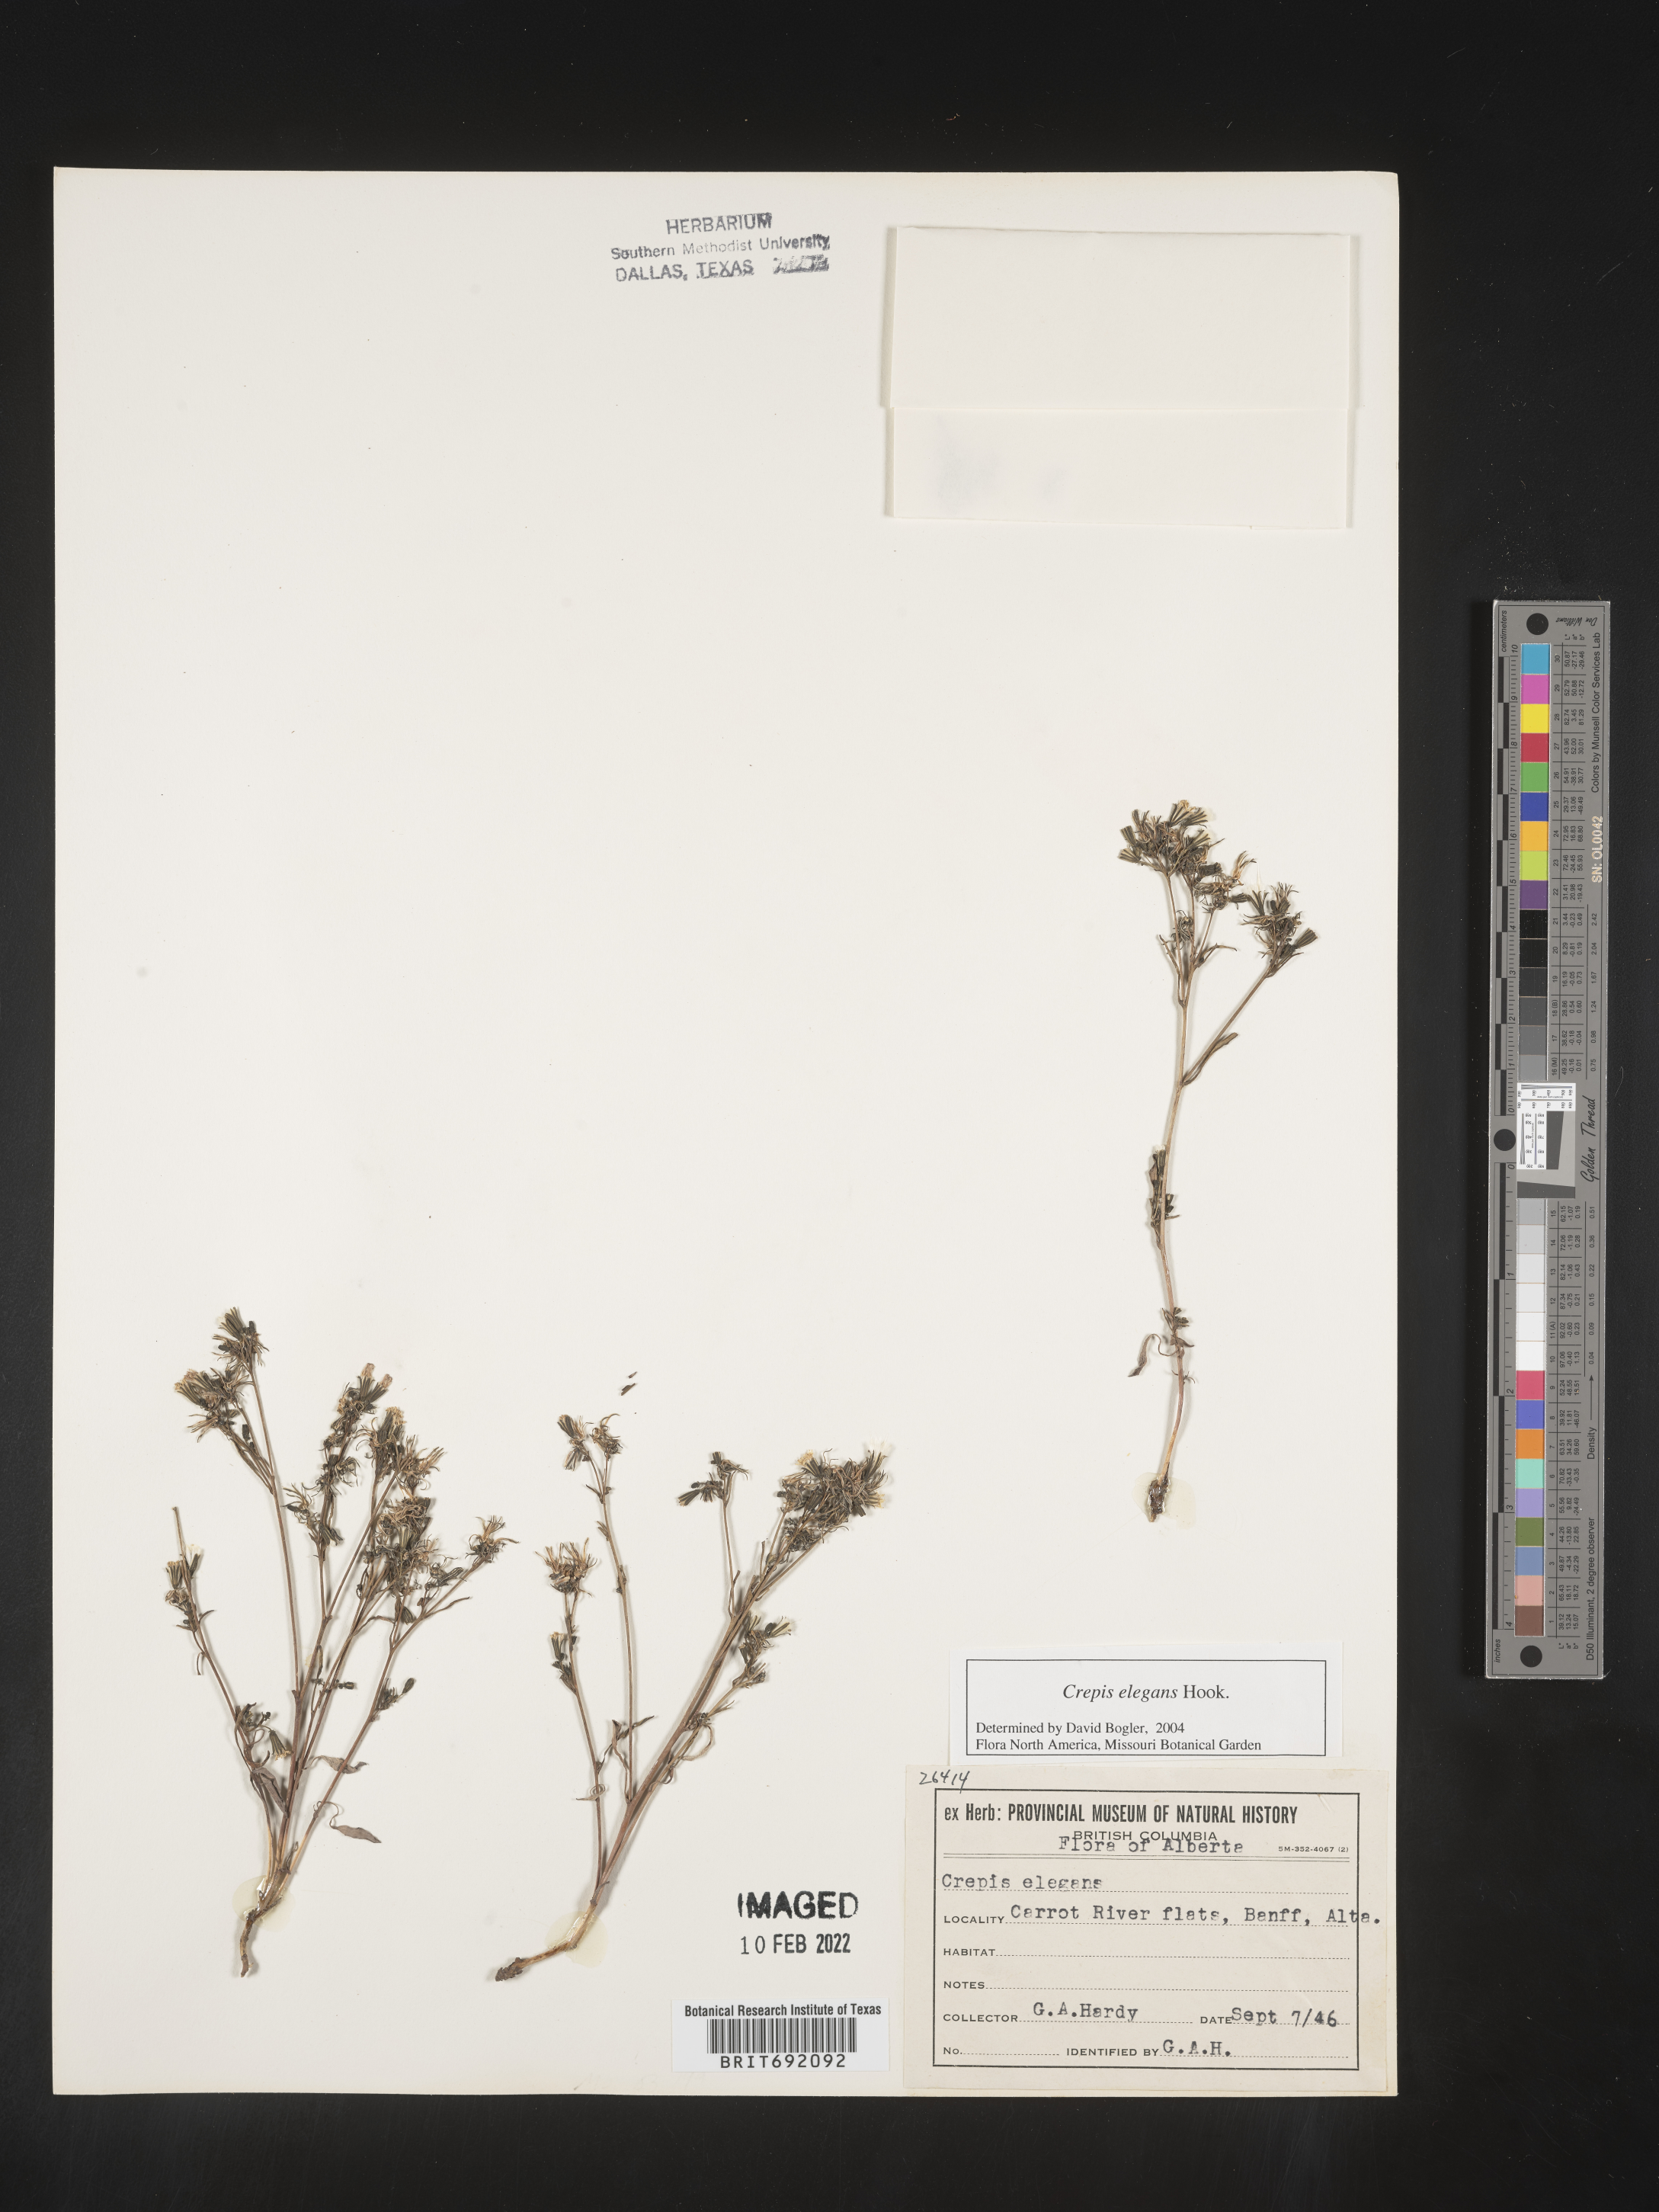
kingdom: Plantae
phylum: Tracheophyta
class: Magnoliopsida
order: Asterales
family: Asteraceae
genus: Crepis
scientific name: Crepis
